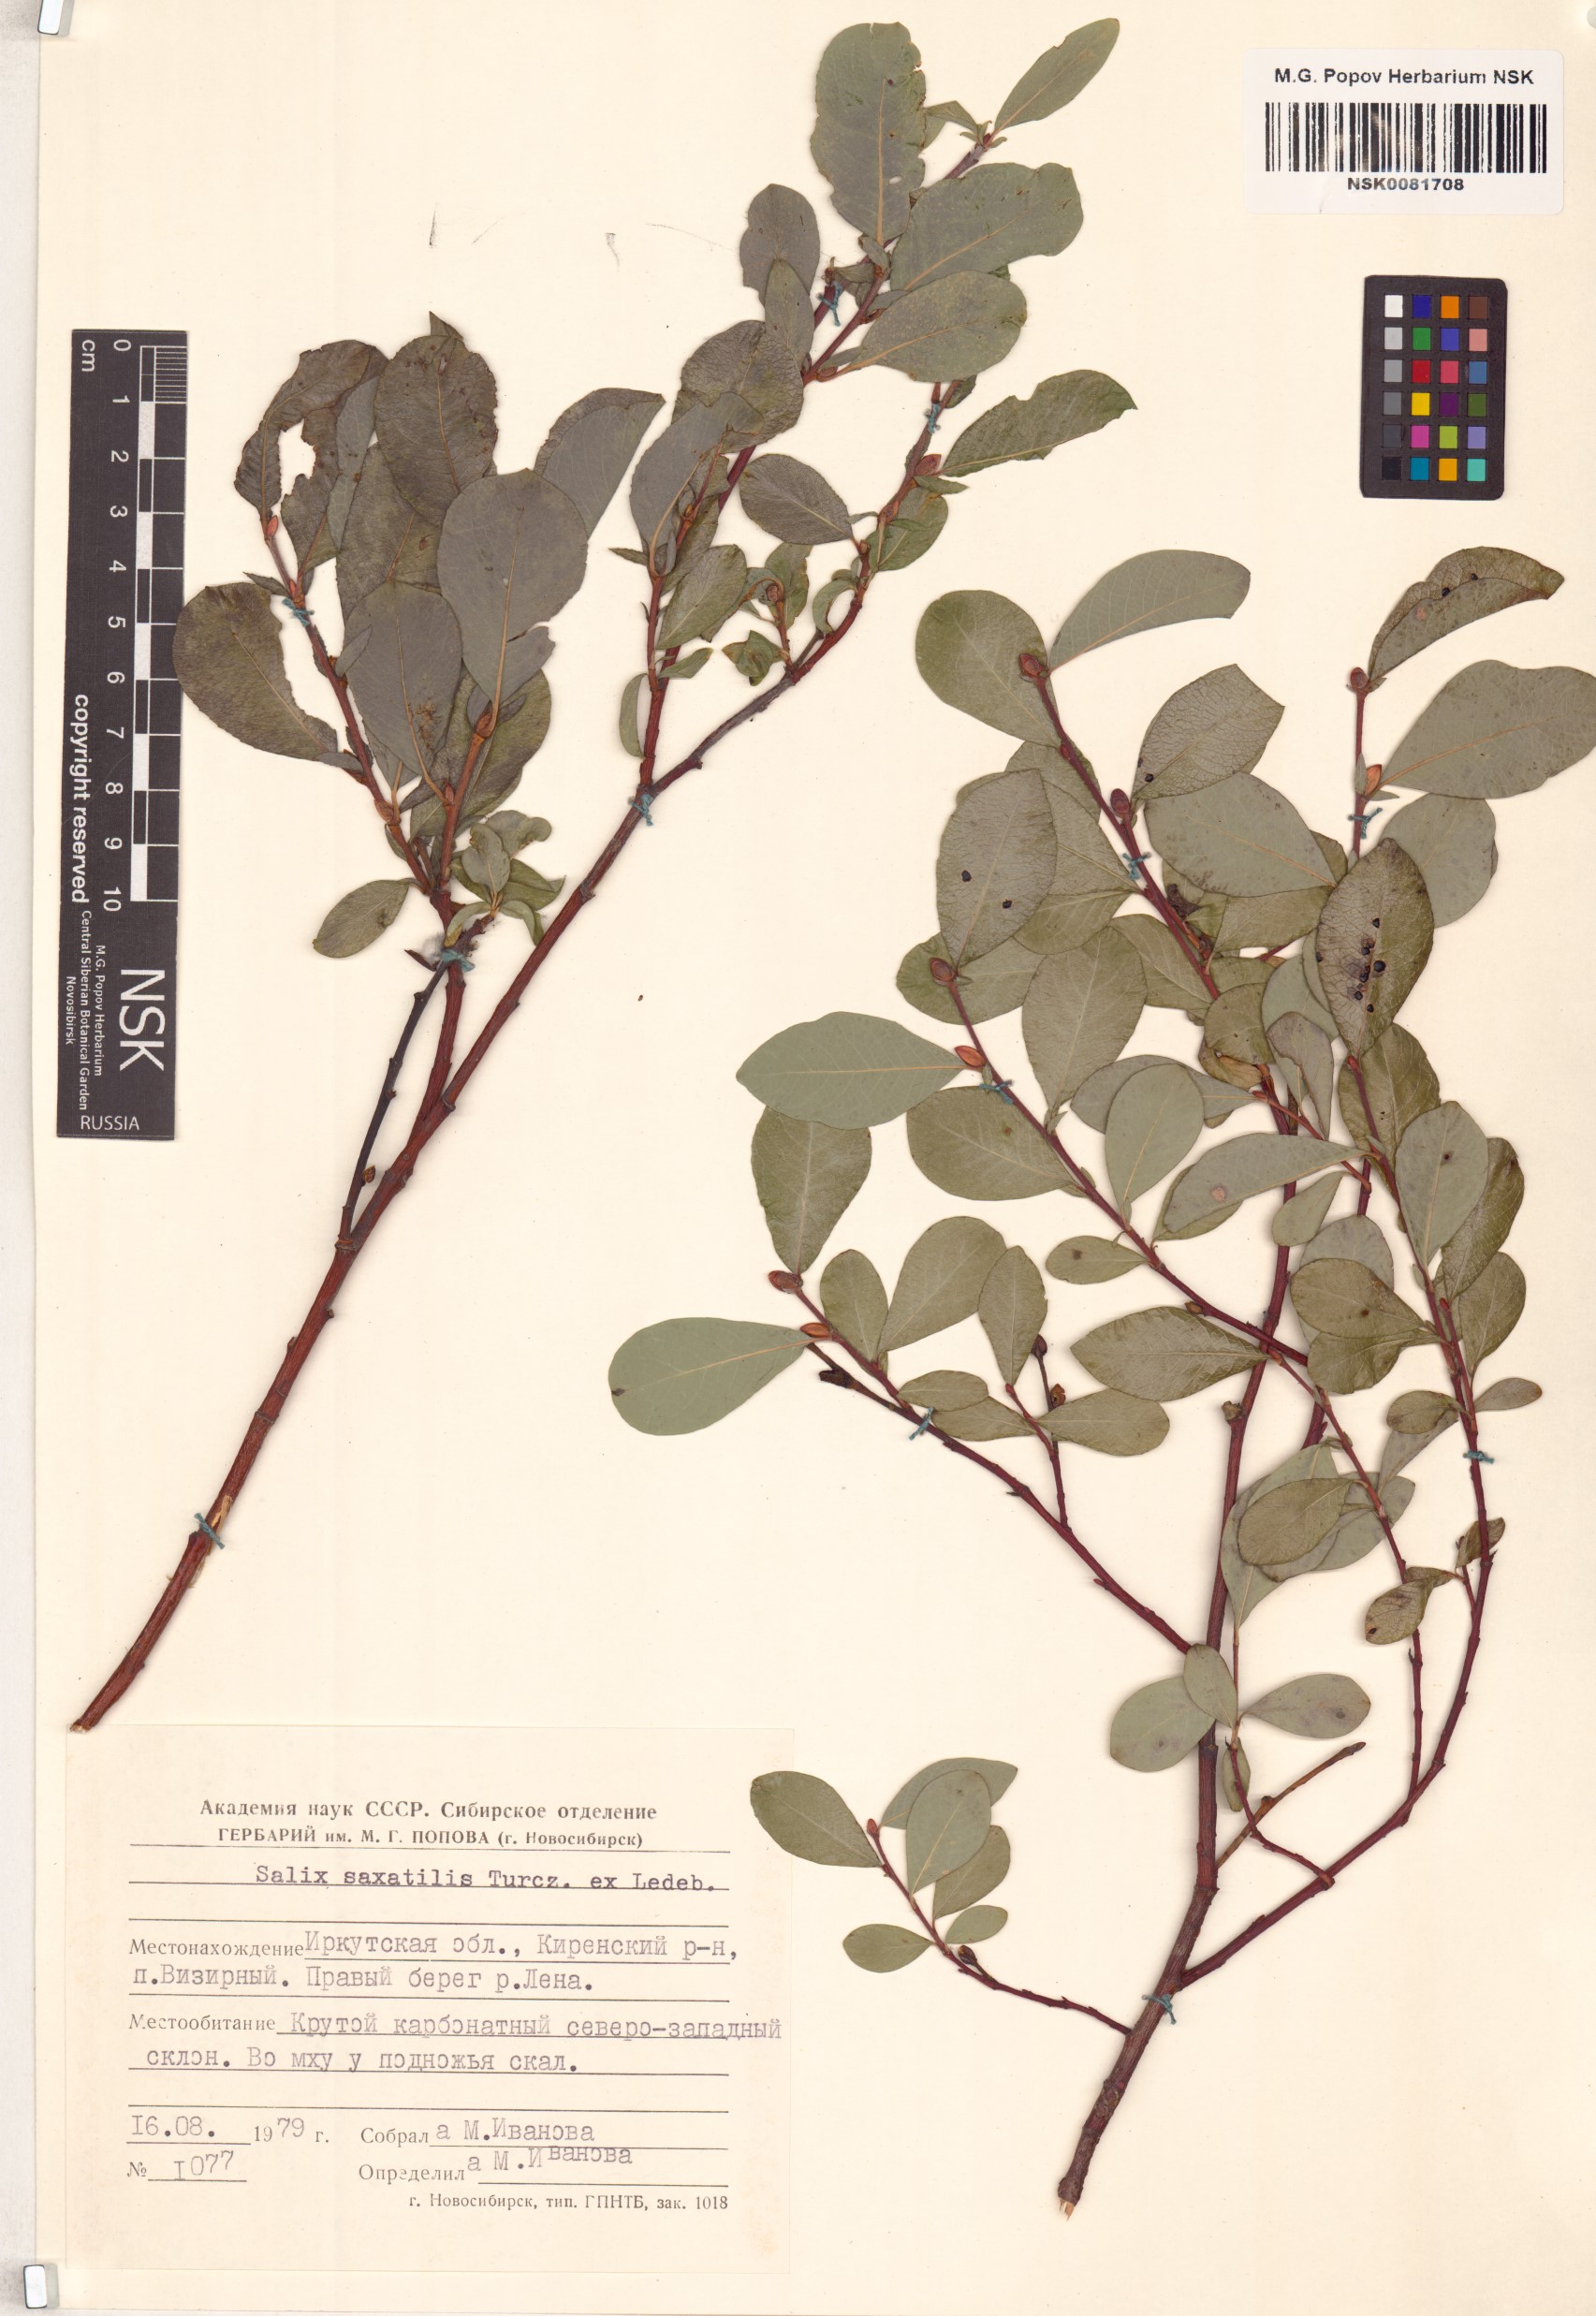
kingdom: Plantae
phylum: Tracheophyta
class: Magnoliopsida
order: Malpighiales
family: Salicaceae
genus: Salix
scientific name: Salix saxatilis
